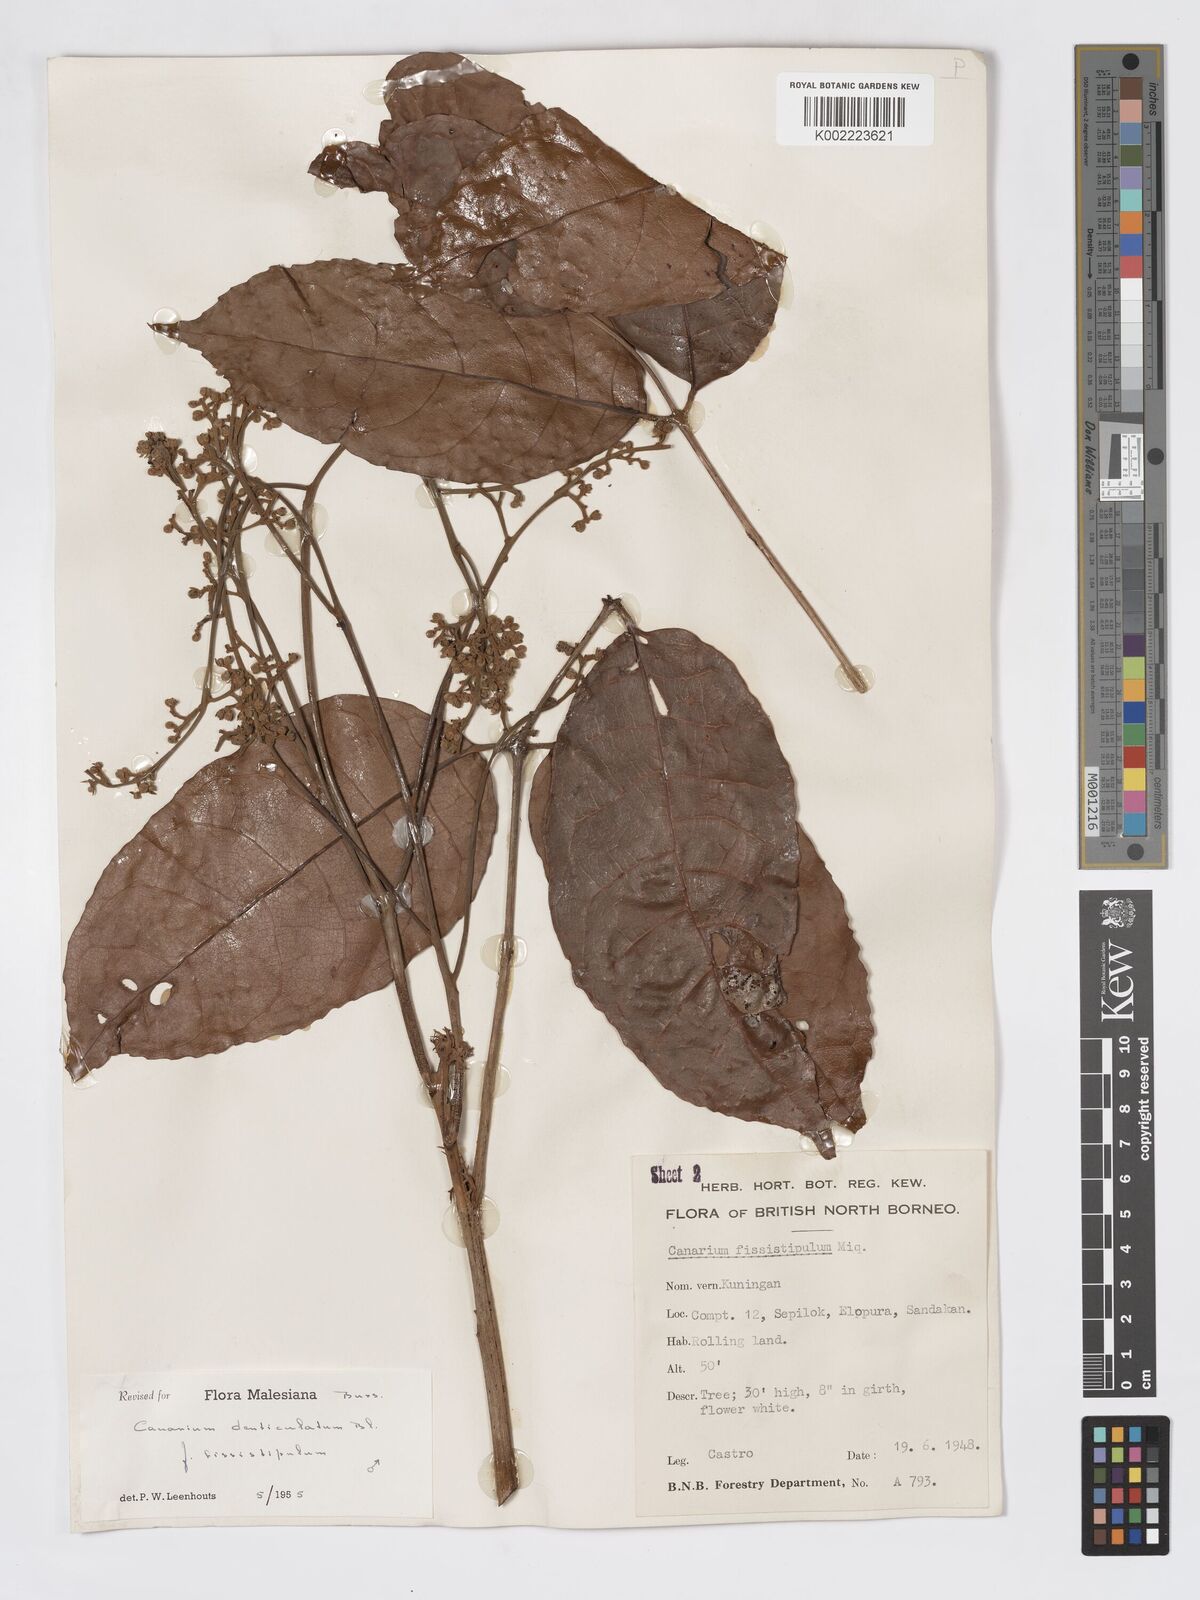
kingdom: Plantae
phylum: Tracheophyta
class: Magnoliopsida
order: Sapindales
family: Burseraceae
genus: Canarium
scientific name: Canarium denticulatum
